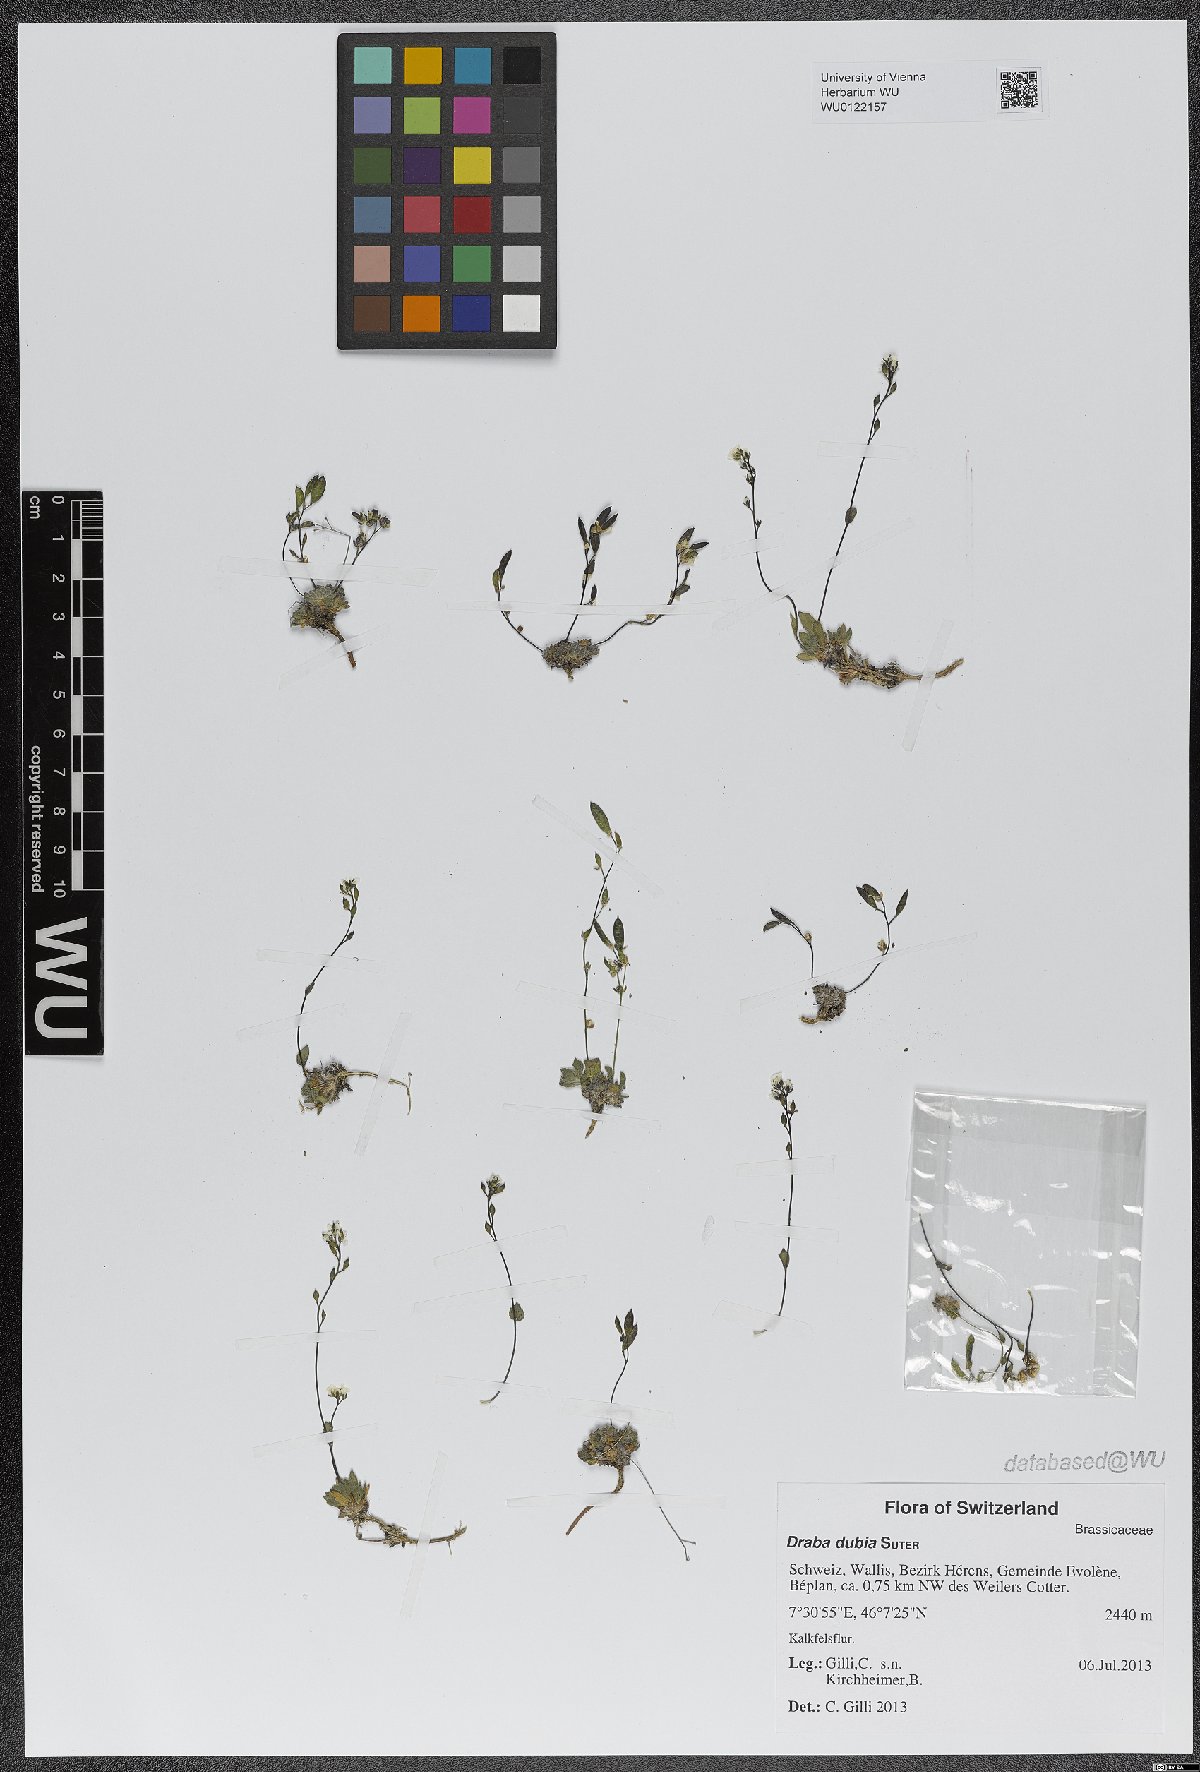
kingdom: Plantae
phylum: Tracheophyta
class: Magnoliopsida
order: Brassicales
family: Brassicaceae
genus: Draba
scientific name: Draba dubia
